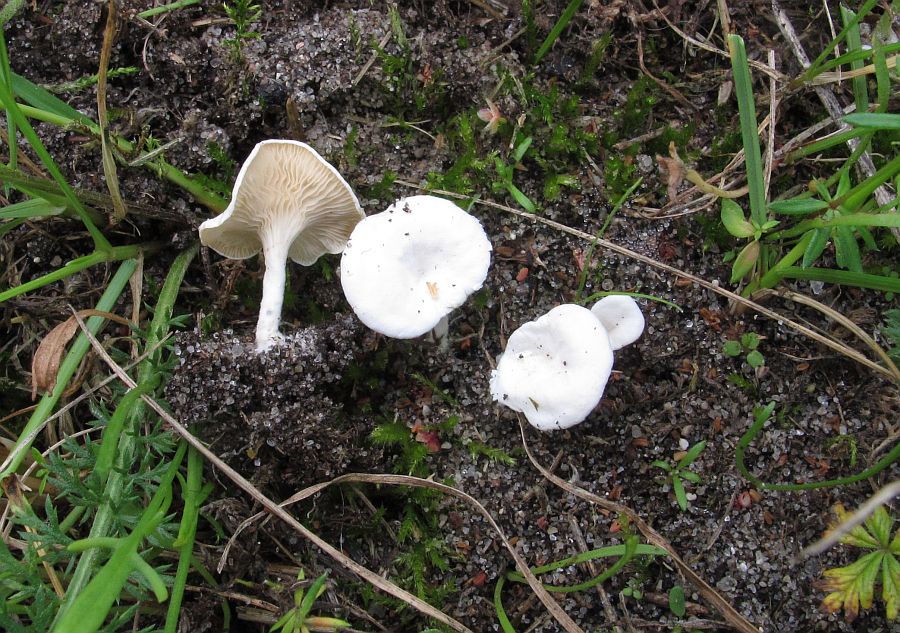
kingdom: Fungi
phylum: Basidiomycota
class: Agaricomycetes
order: Agaricales
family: Entolomataceae
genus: Clitopilus
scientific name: Clitopilus scyphoides
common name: spinkel melhat
